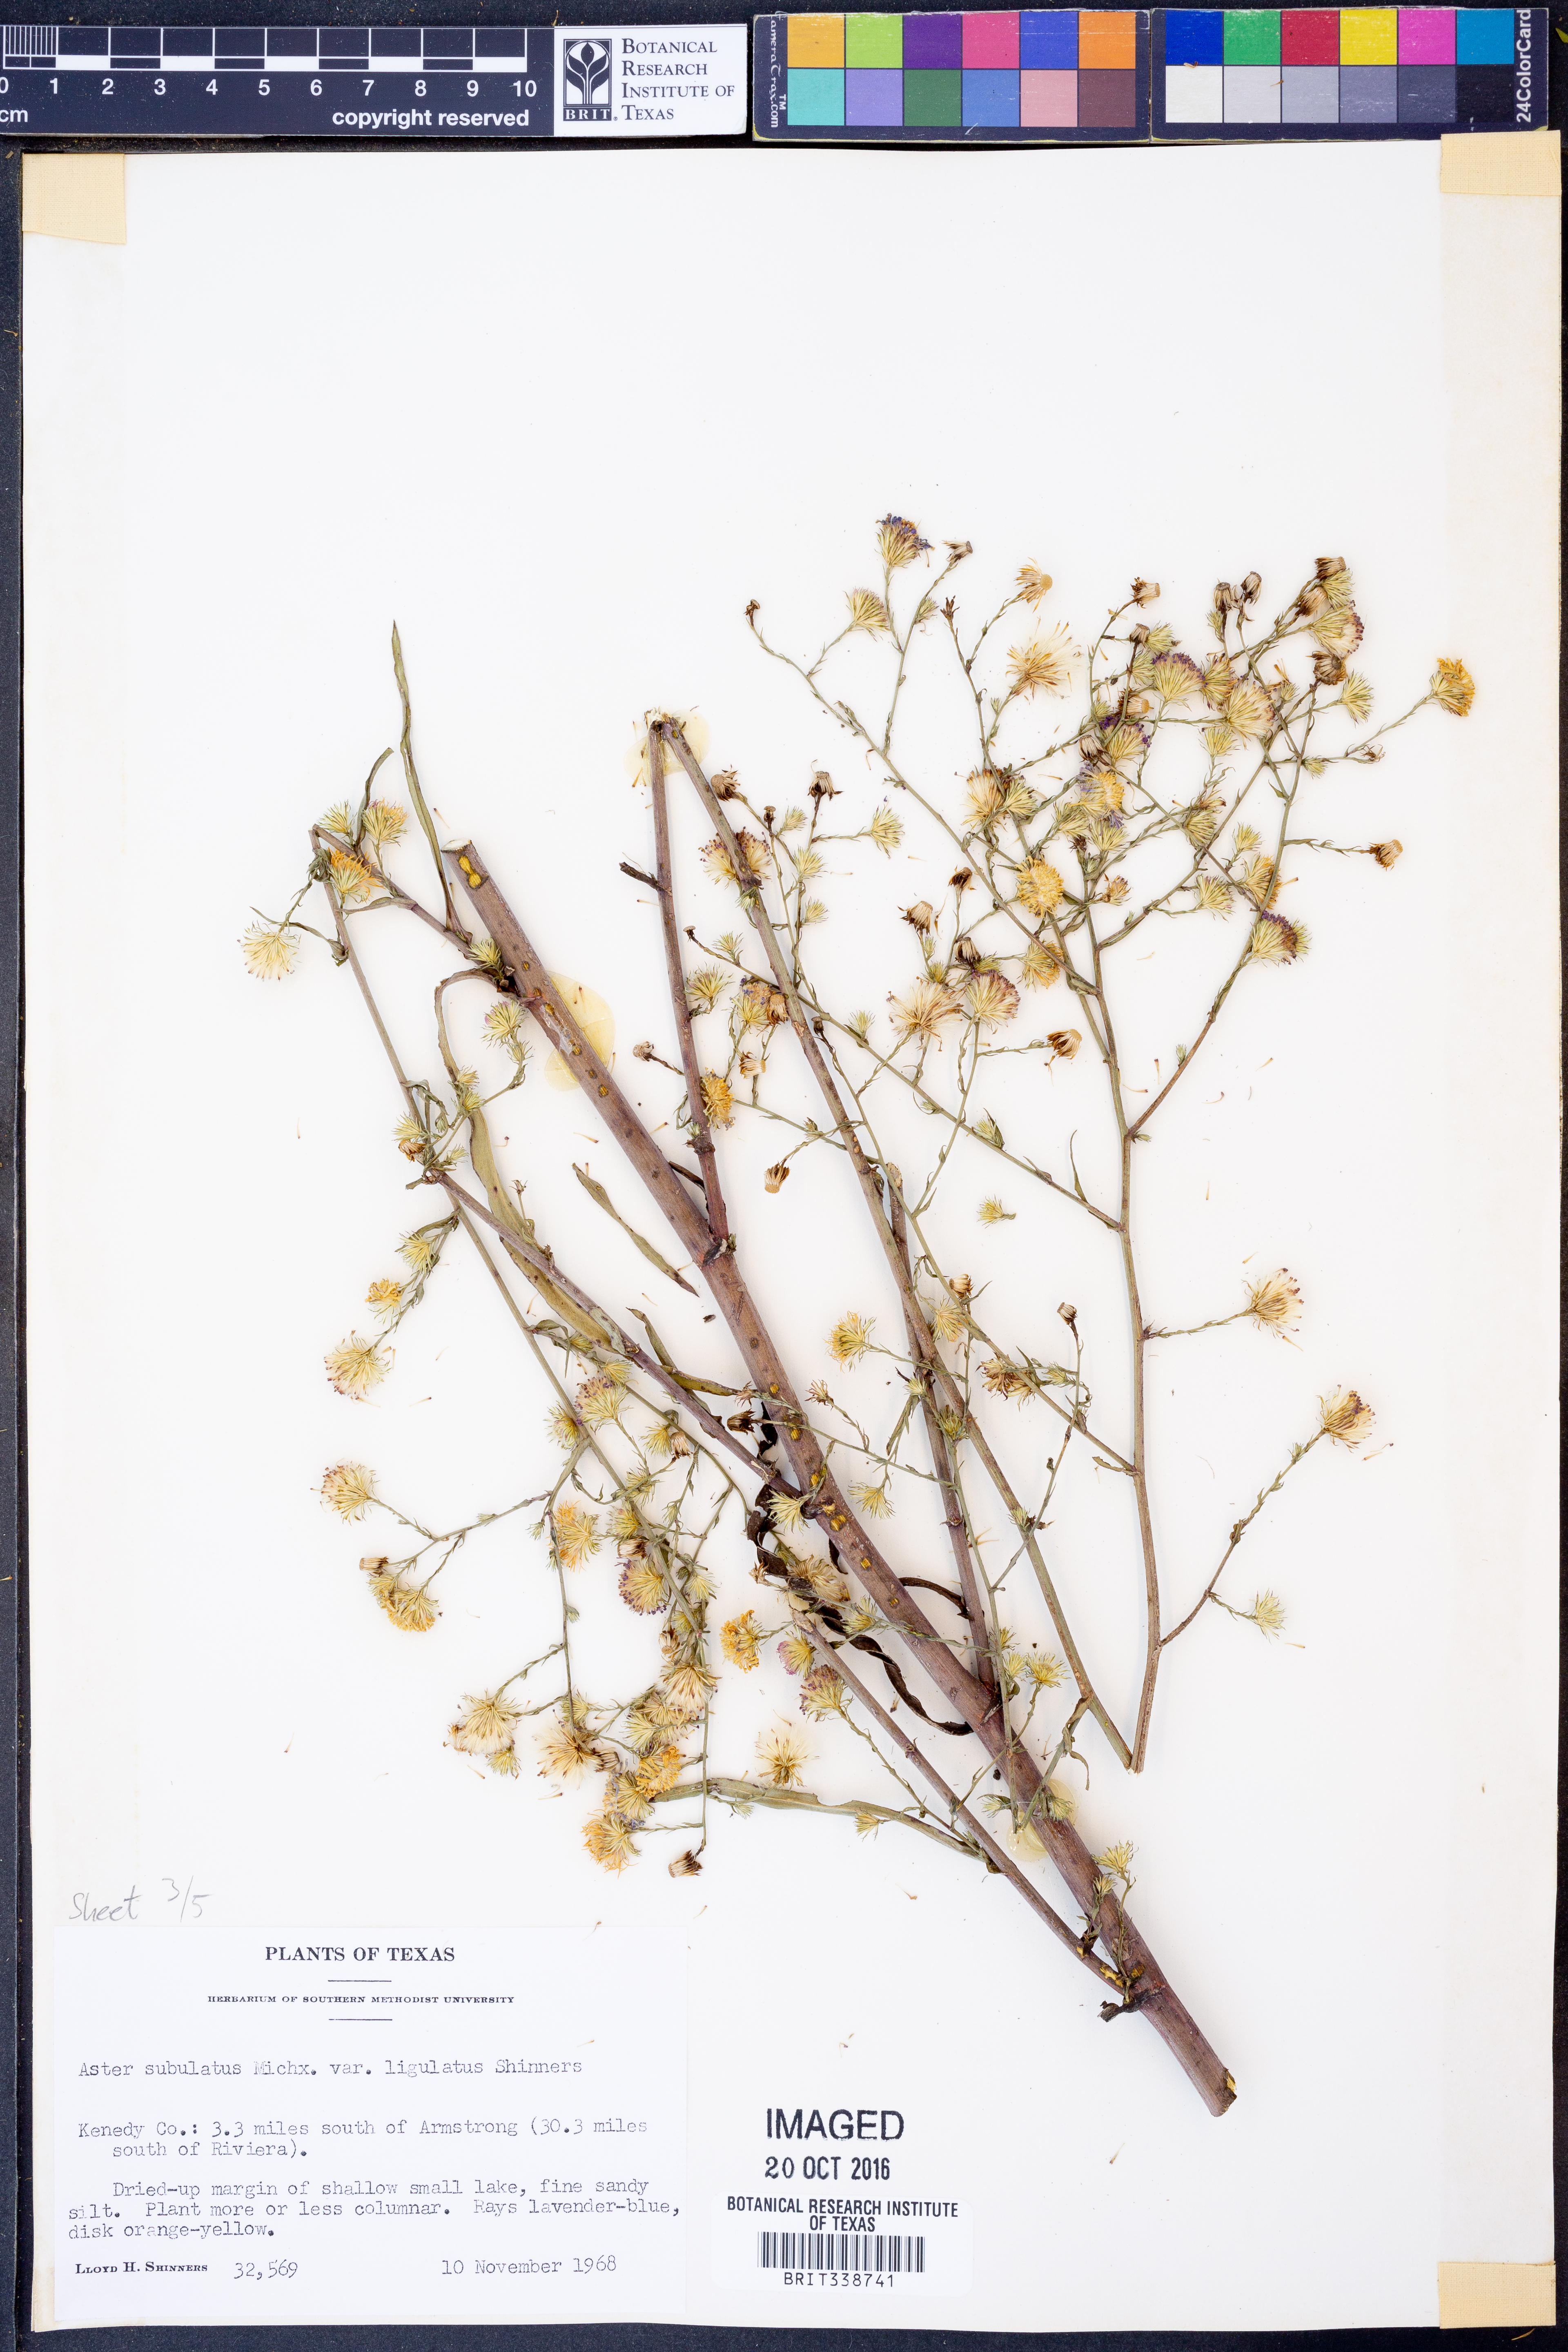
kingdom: Plantae
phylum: Tracheophyta
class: Magnoliopsida
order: Asterales
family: Asteraceae
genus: Symphyotrichum
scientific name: Symphyotrichum divaricatum
